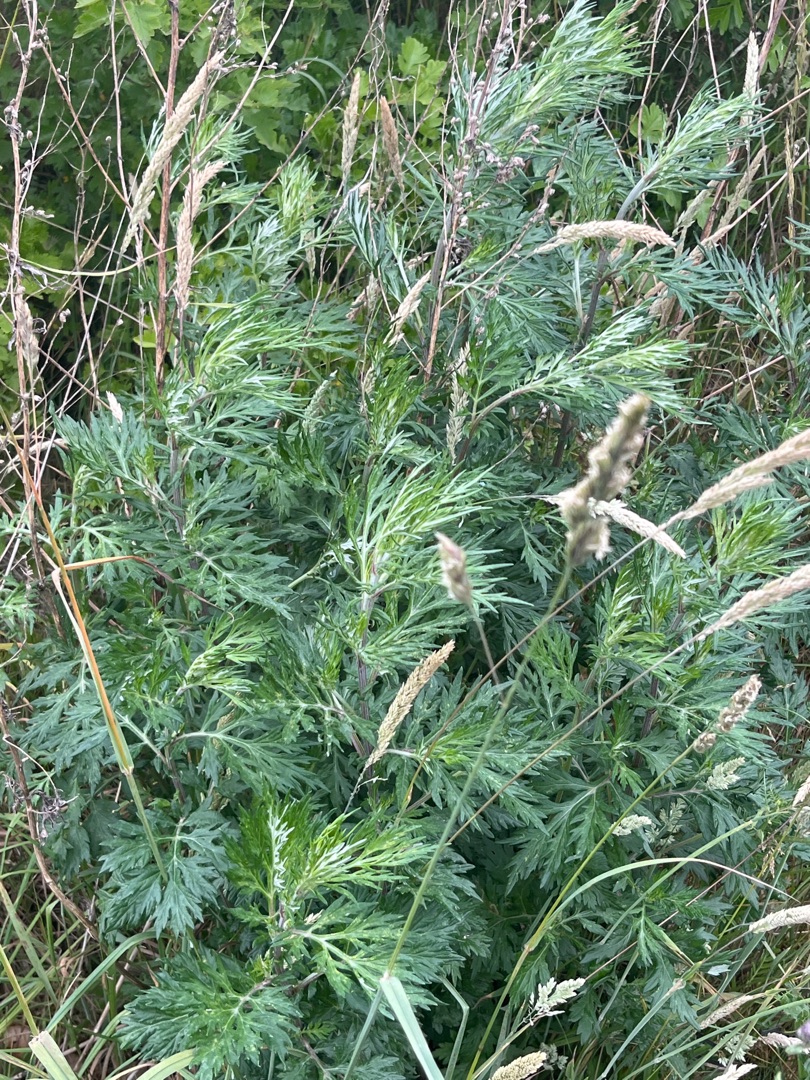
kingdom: Plantae
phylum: Tracheophyta
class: Magnoliopsida
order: Asterales
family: Asteraceae
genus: Artemisia
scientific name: Artemisia vulgaris
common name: Grå-bynke
